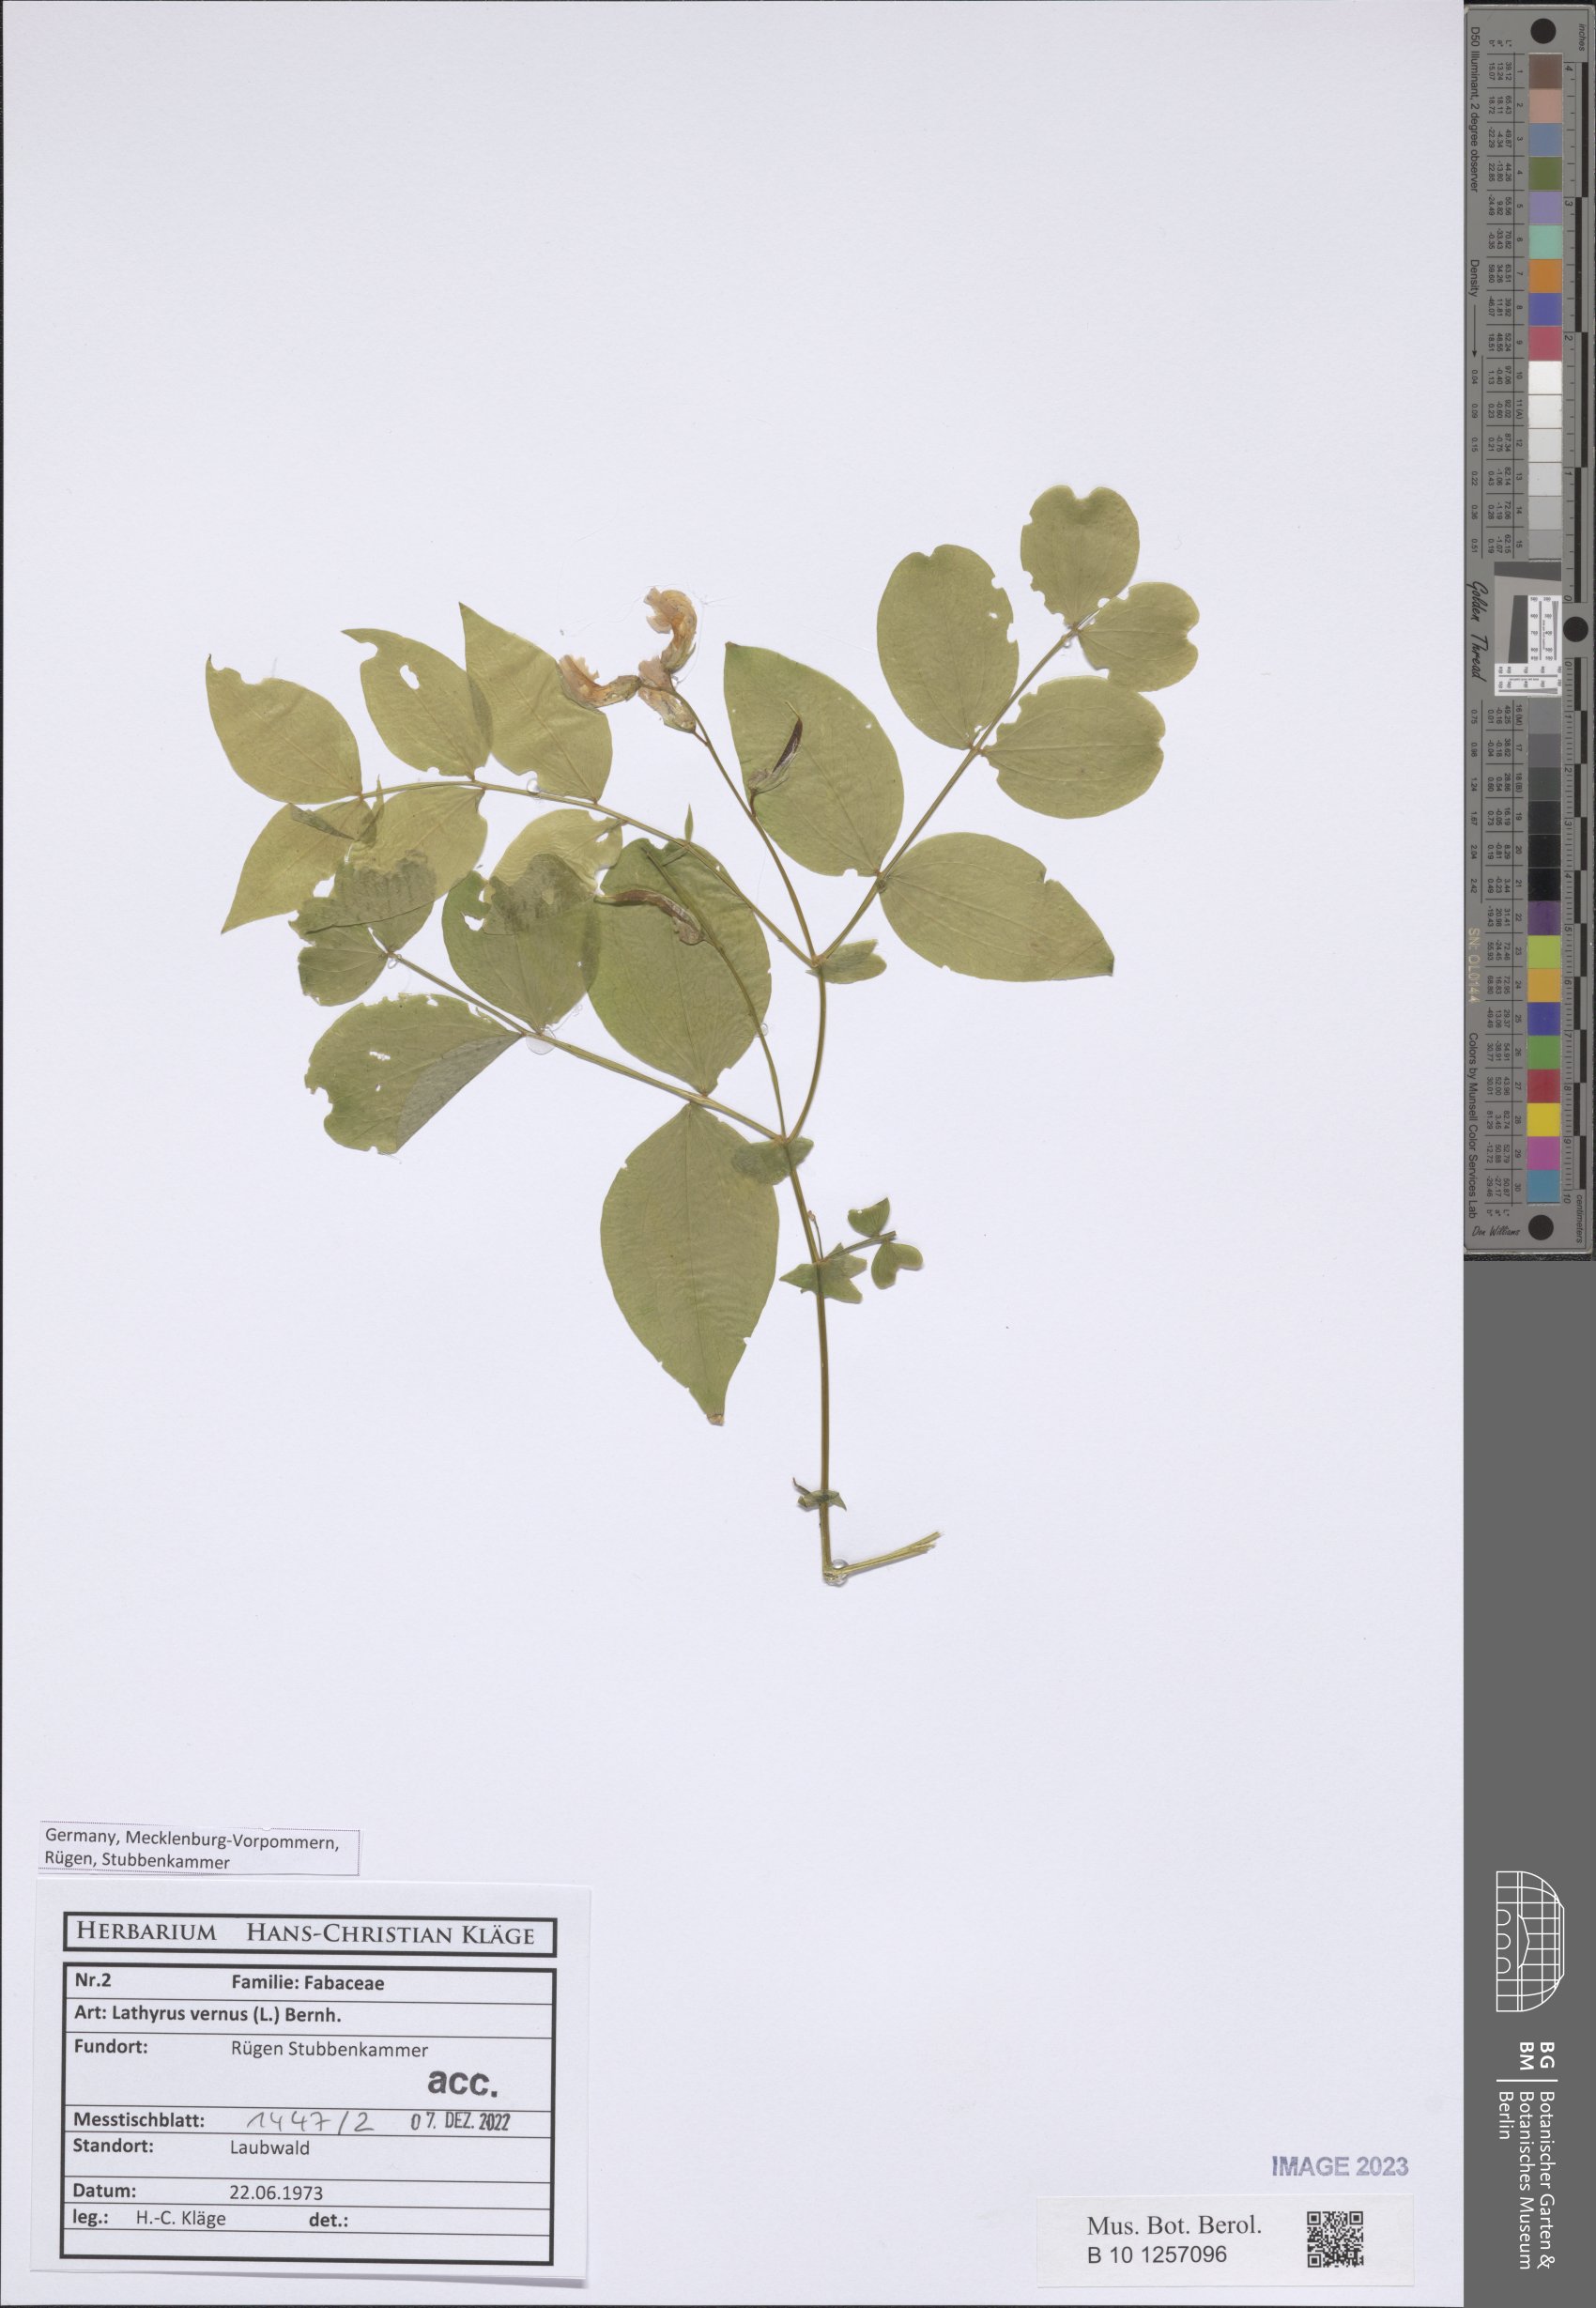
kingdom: Plantae
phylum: Tracheophyta
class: Magnoliopsida
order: Fabales
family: Fabaceae
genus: Lathyrus
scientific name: Lathyrus vernus
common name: Spring pea
